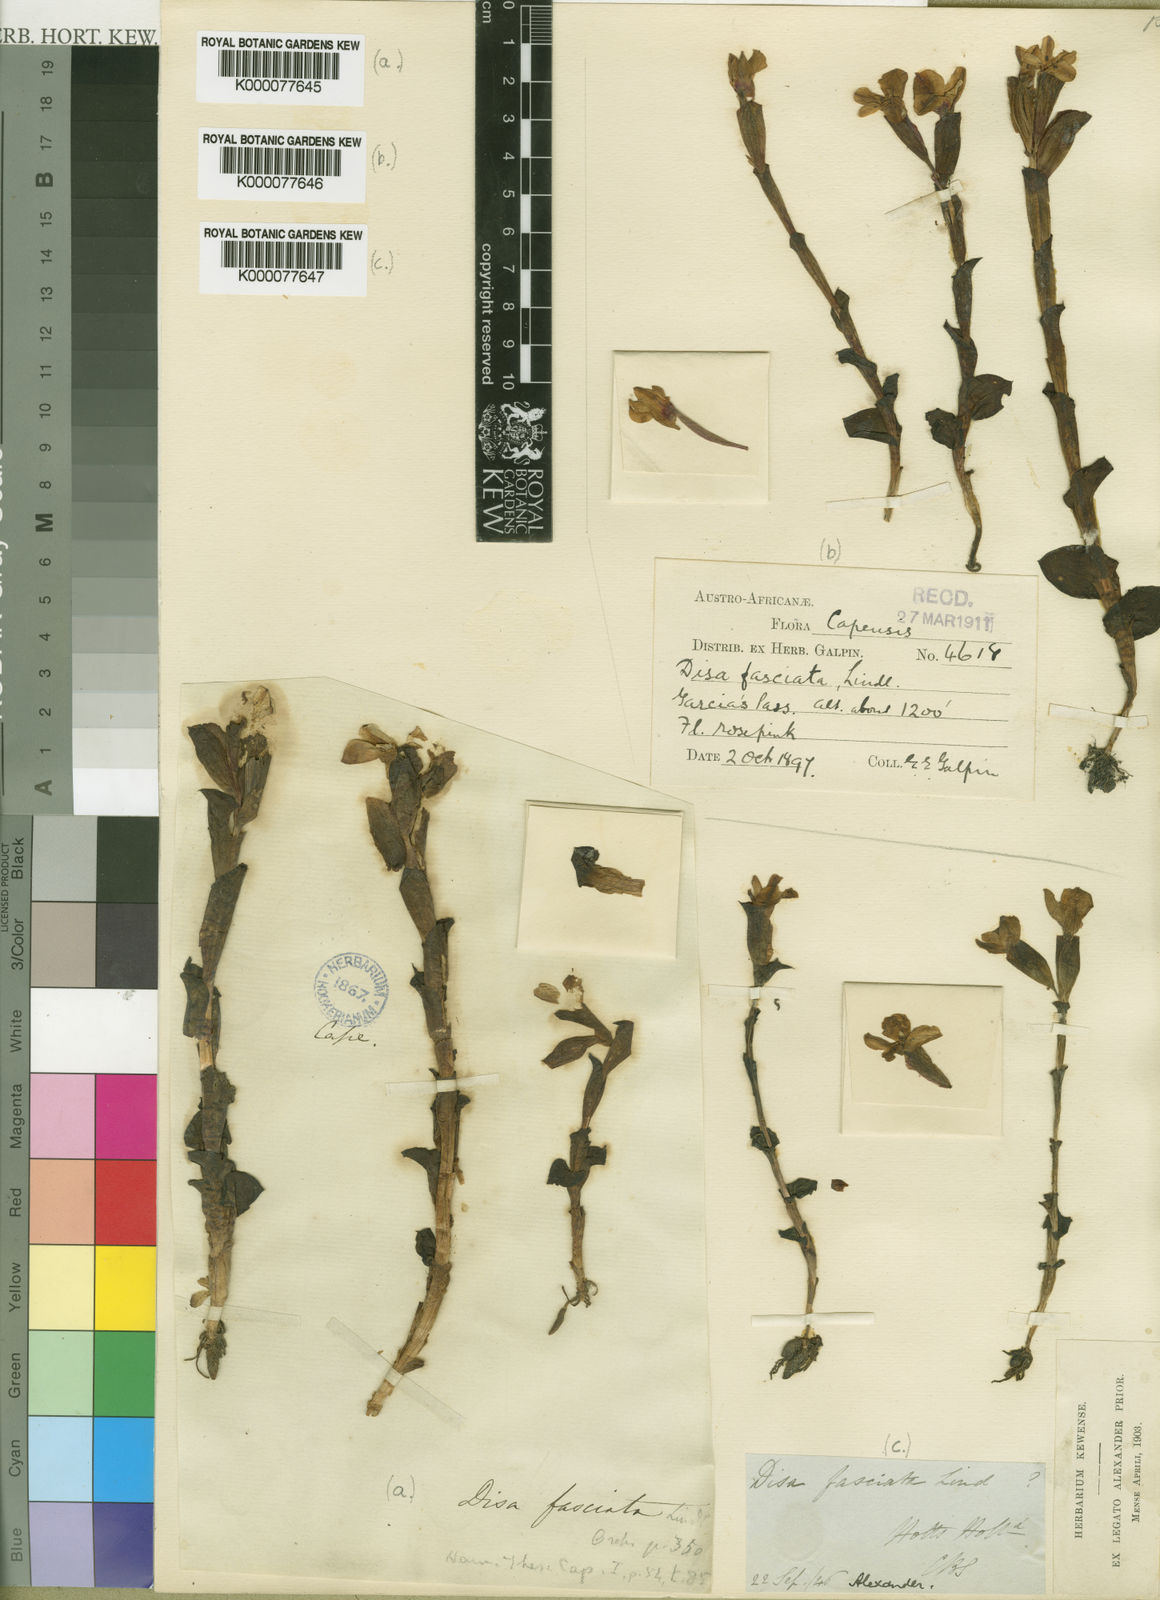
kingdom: Plantae
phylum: Tracheophyta
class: Liliopsida
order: Asparagales
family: Orchidaceae
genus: Disa
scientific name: Disa fasciata
